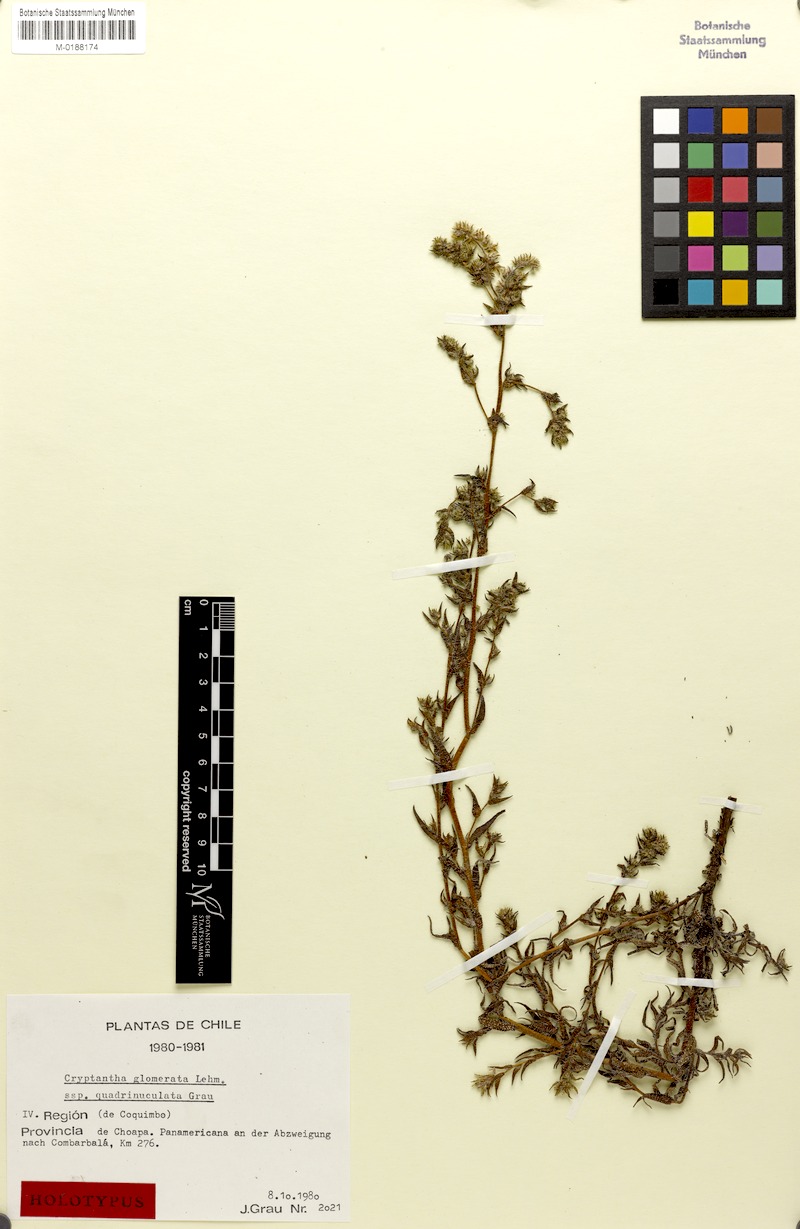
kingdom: Plantae
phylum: Tracheophyta
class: Magnoliopsida
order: Boraginales
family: Boraginaceae
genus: Cryptantha
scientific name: Cryptantha vidalii
